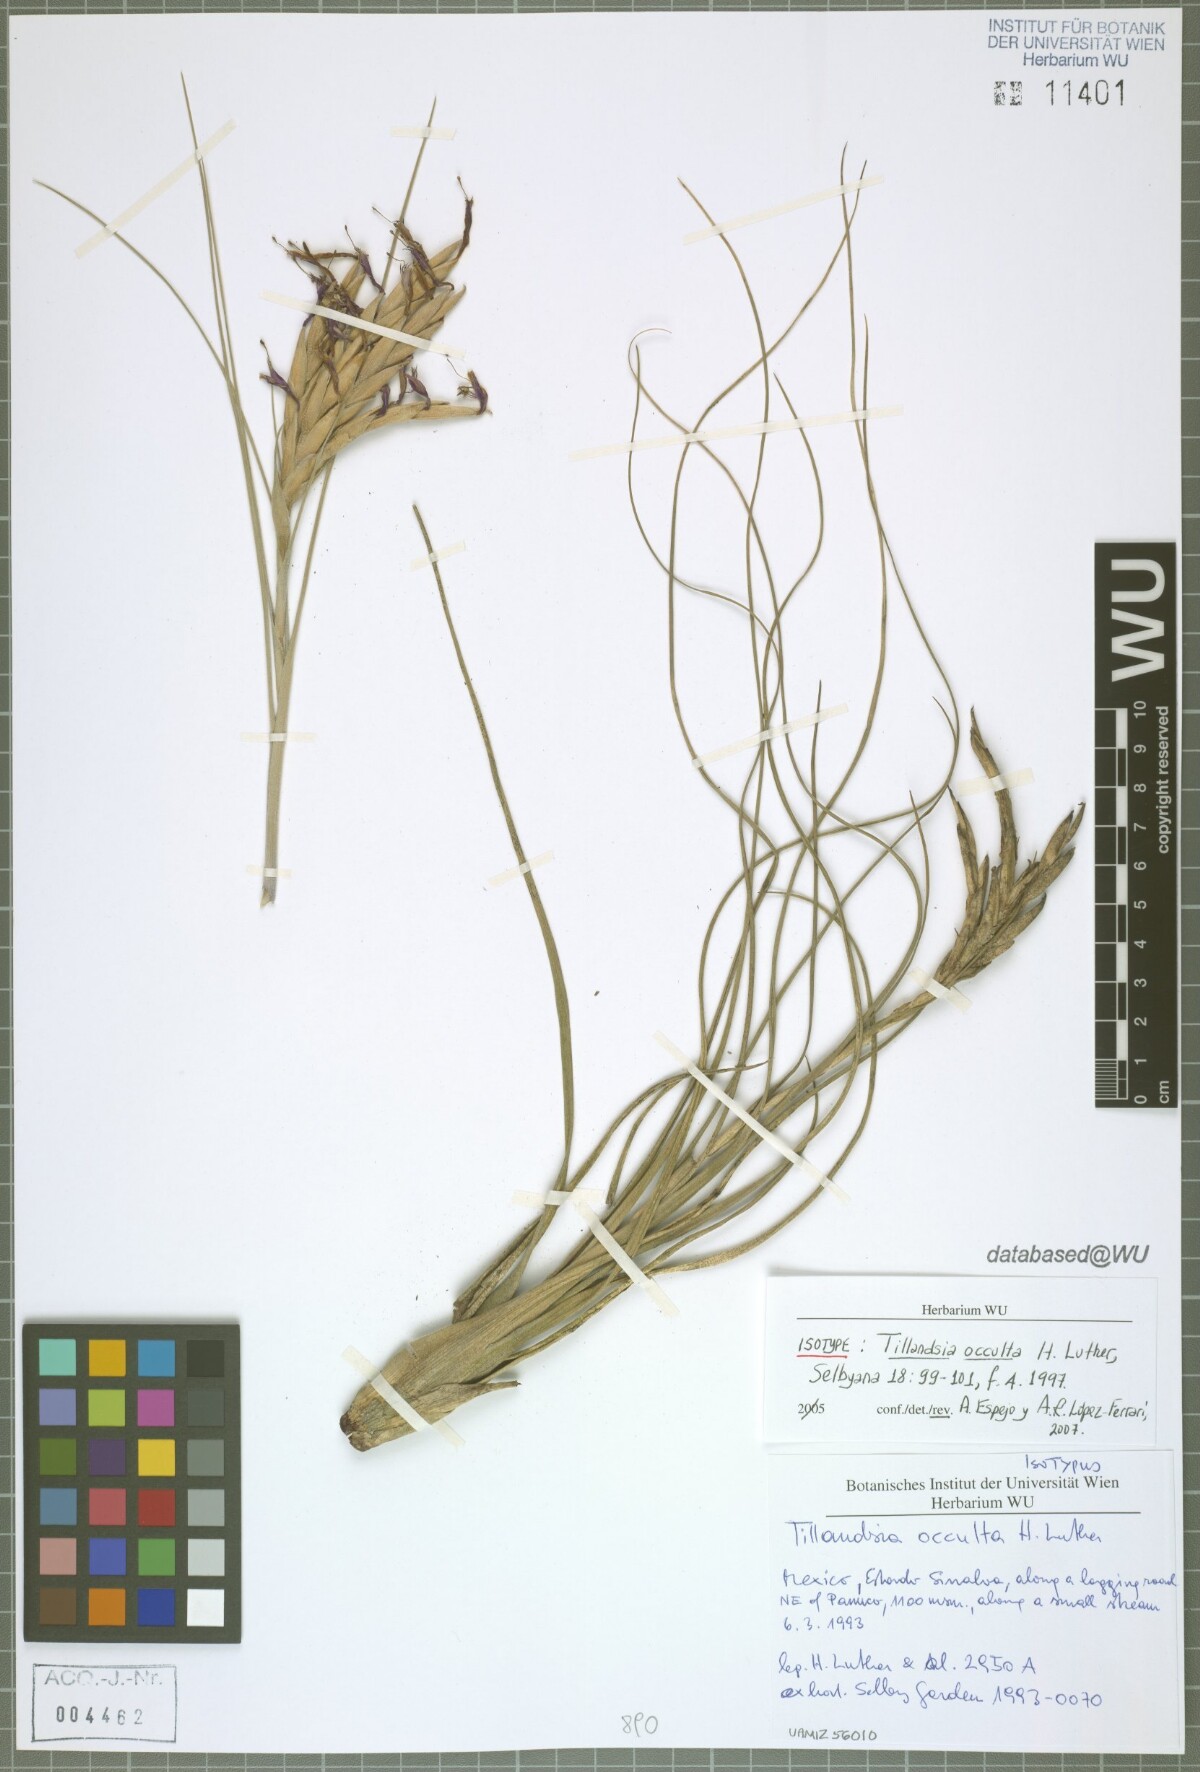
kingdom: Plantae
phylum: Tracheophyta
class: Liliopsida
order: Poales
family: Bromeliaceae
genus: Tillandsia
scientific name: Tillandsia occulta
